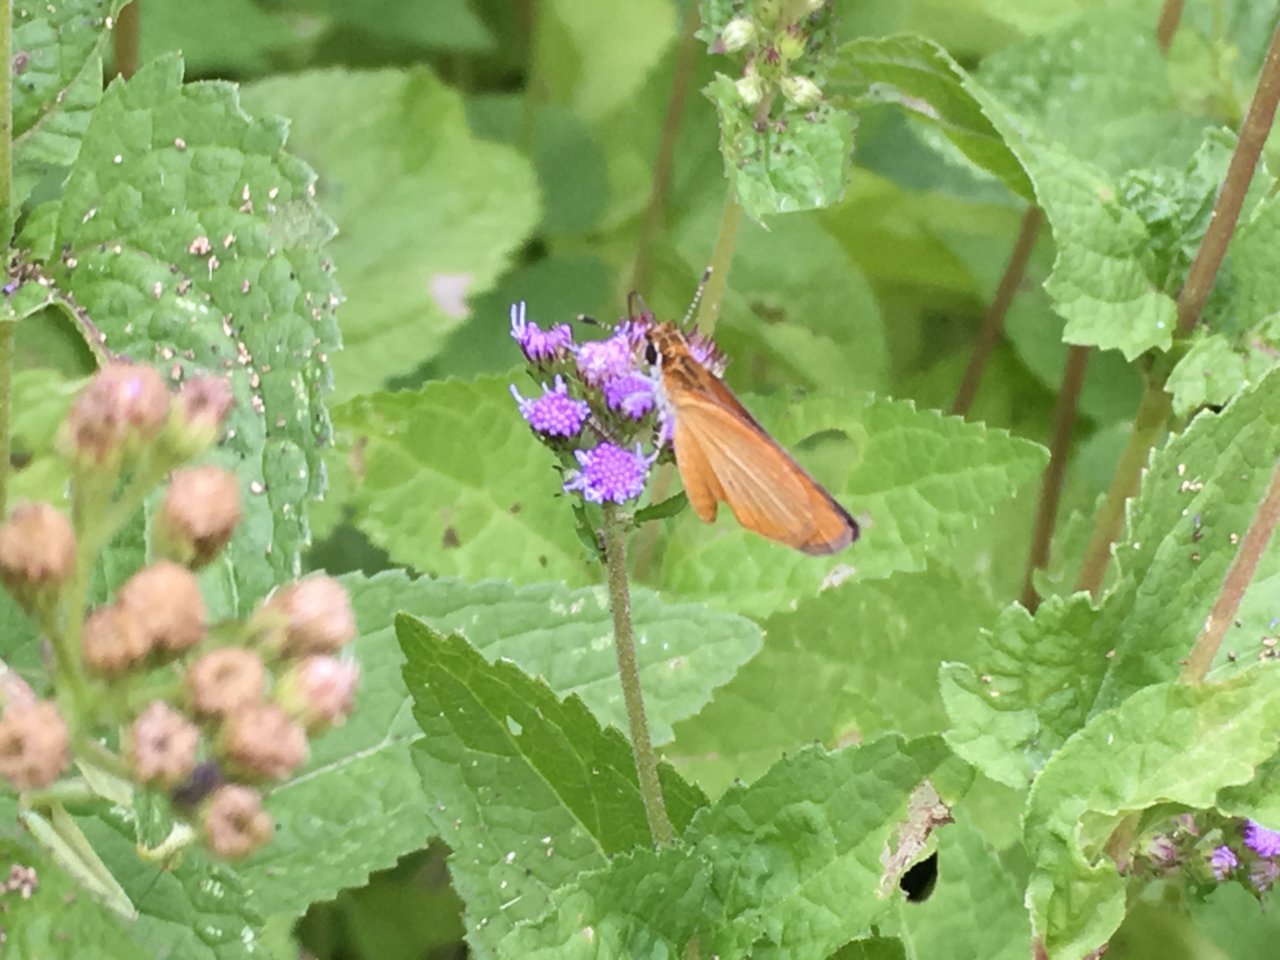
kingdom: Animalia
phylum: Arthropoda
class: Insecta
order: Lepidoptera
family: Hesperiidae
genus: Ancyloxypha
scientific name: Ancyloxypha numitor
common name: Least Skipper
